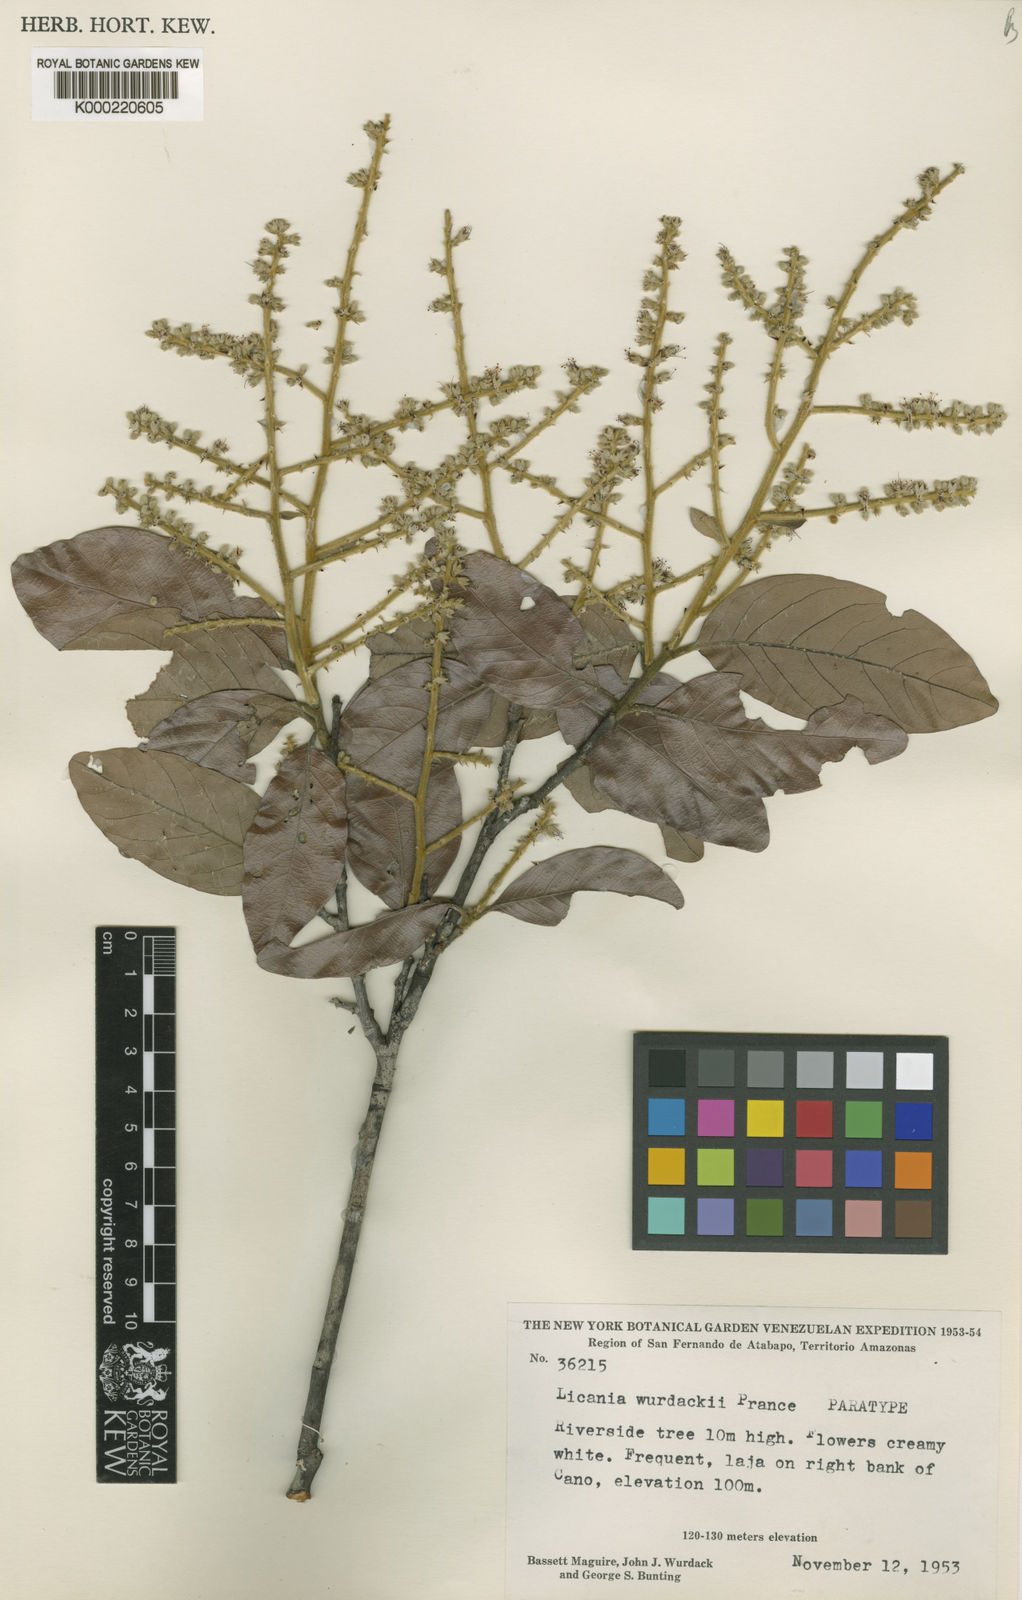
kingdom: Plantae
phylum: Tracheophyta
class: Magnoliopsida
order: Malpighiales
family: Chrysobalanaceae
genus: Leptobalanus
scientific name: Leptobalanus wurdackii
